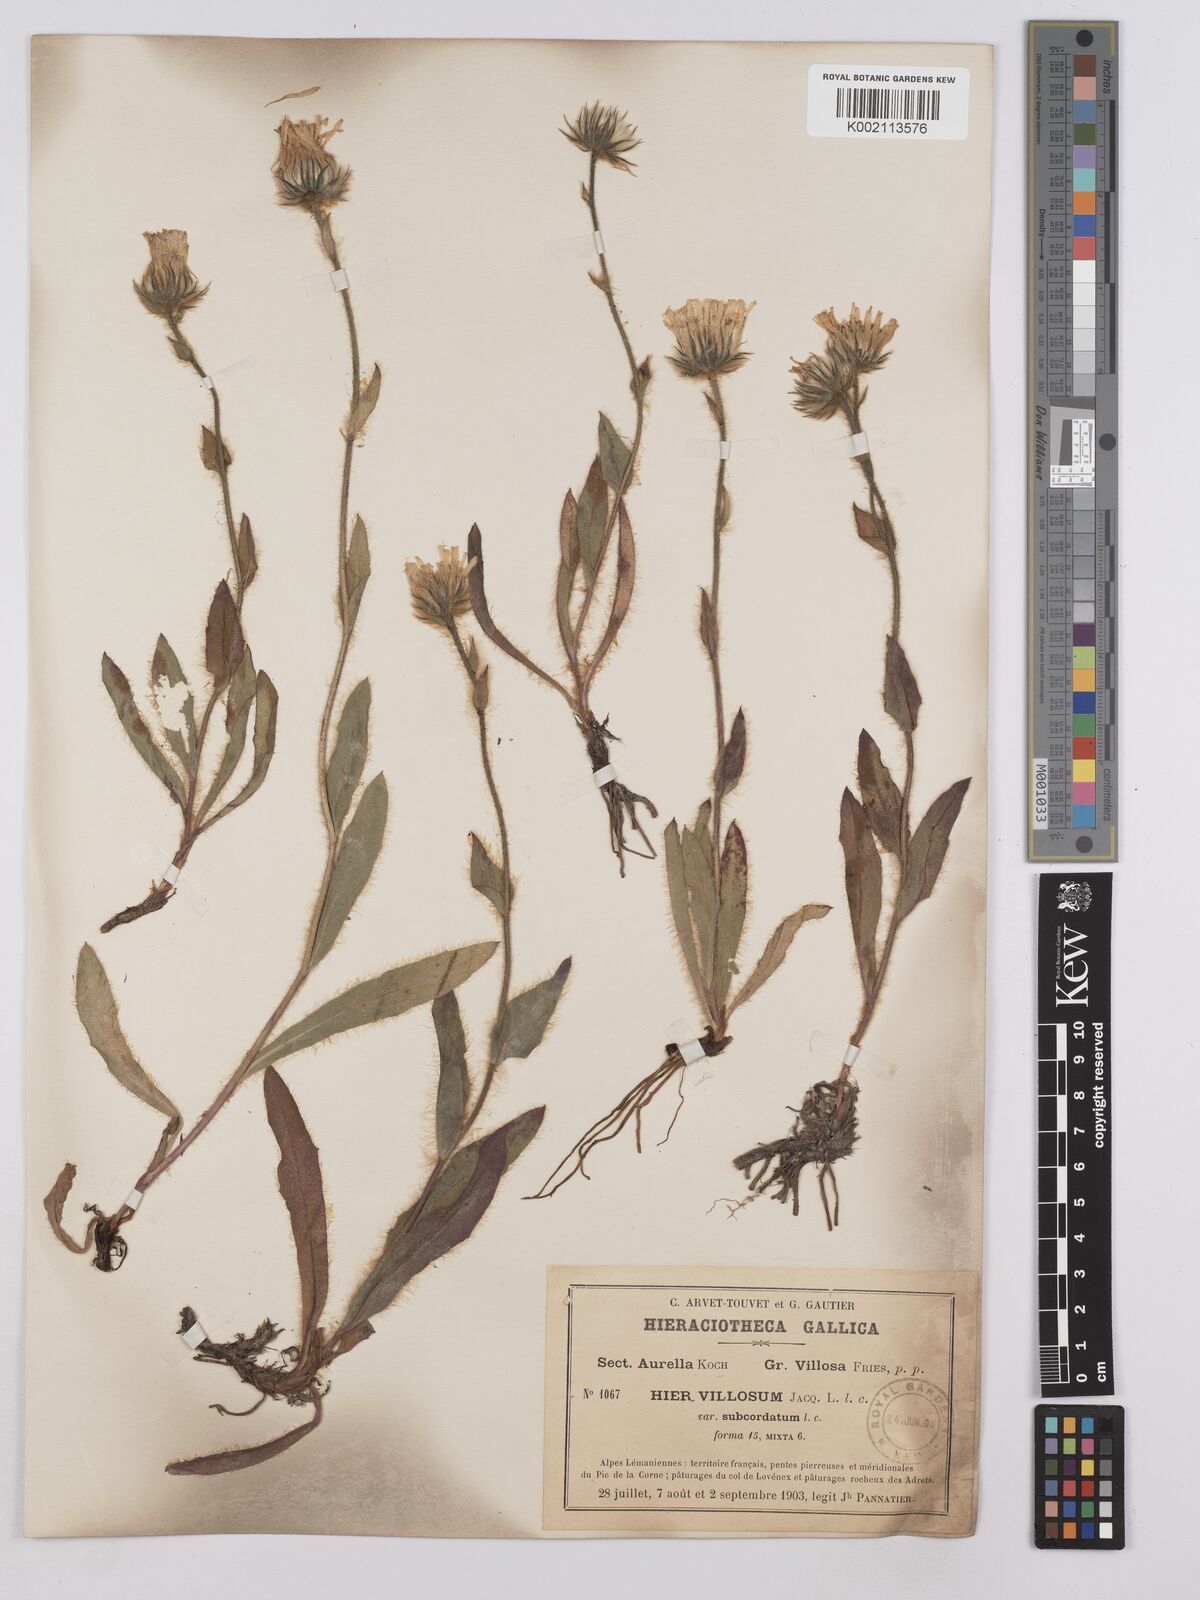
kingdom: Plantae
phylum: Tracheophyta
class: Magnoliopsida
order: Asterales
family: Asteraceae
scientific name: Asteraceae
